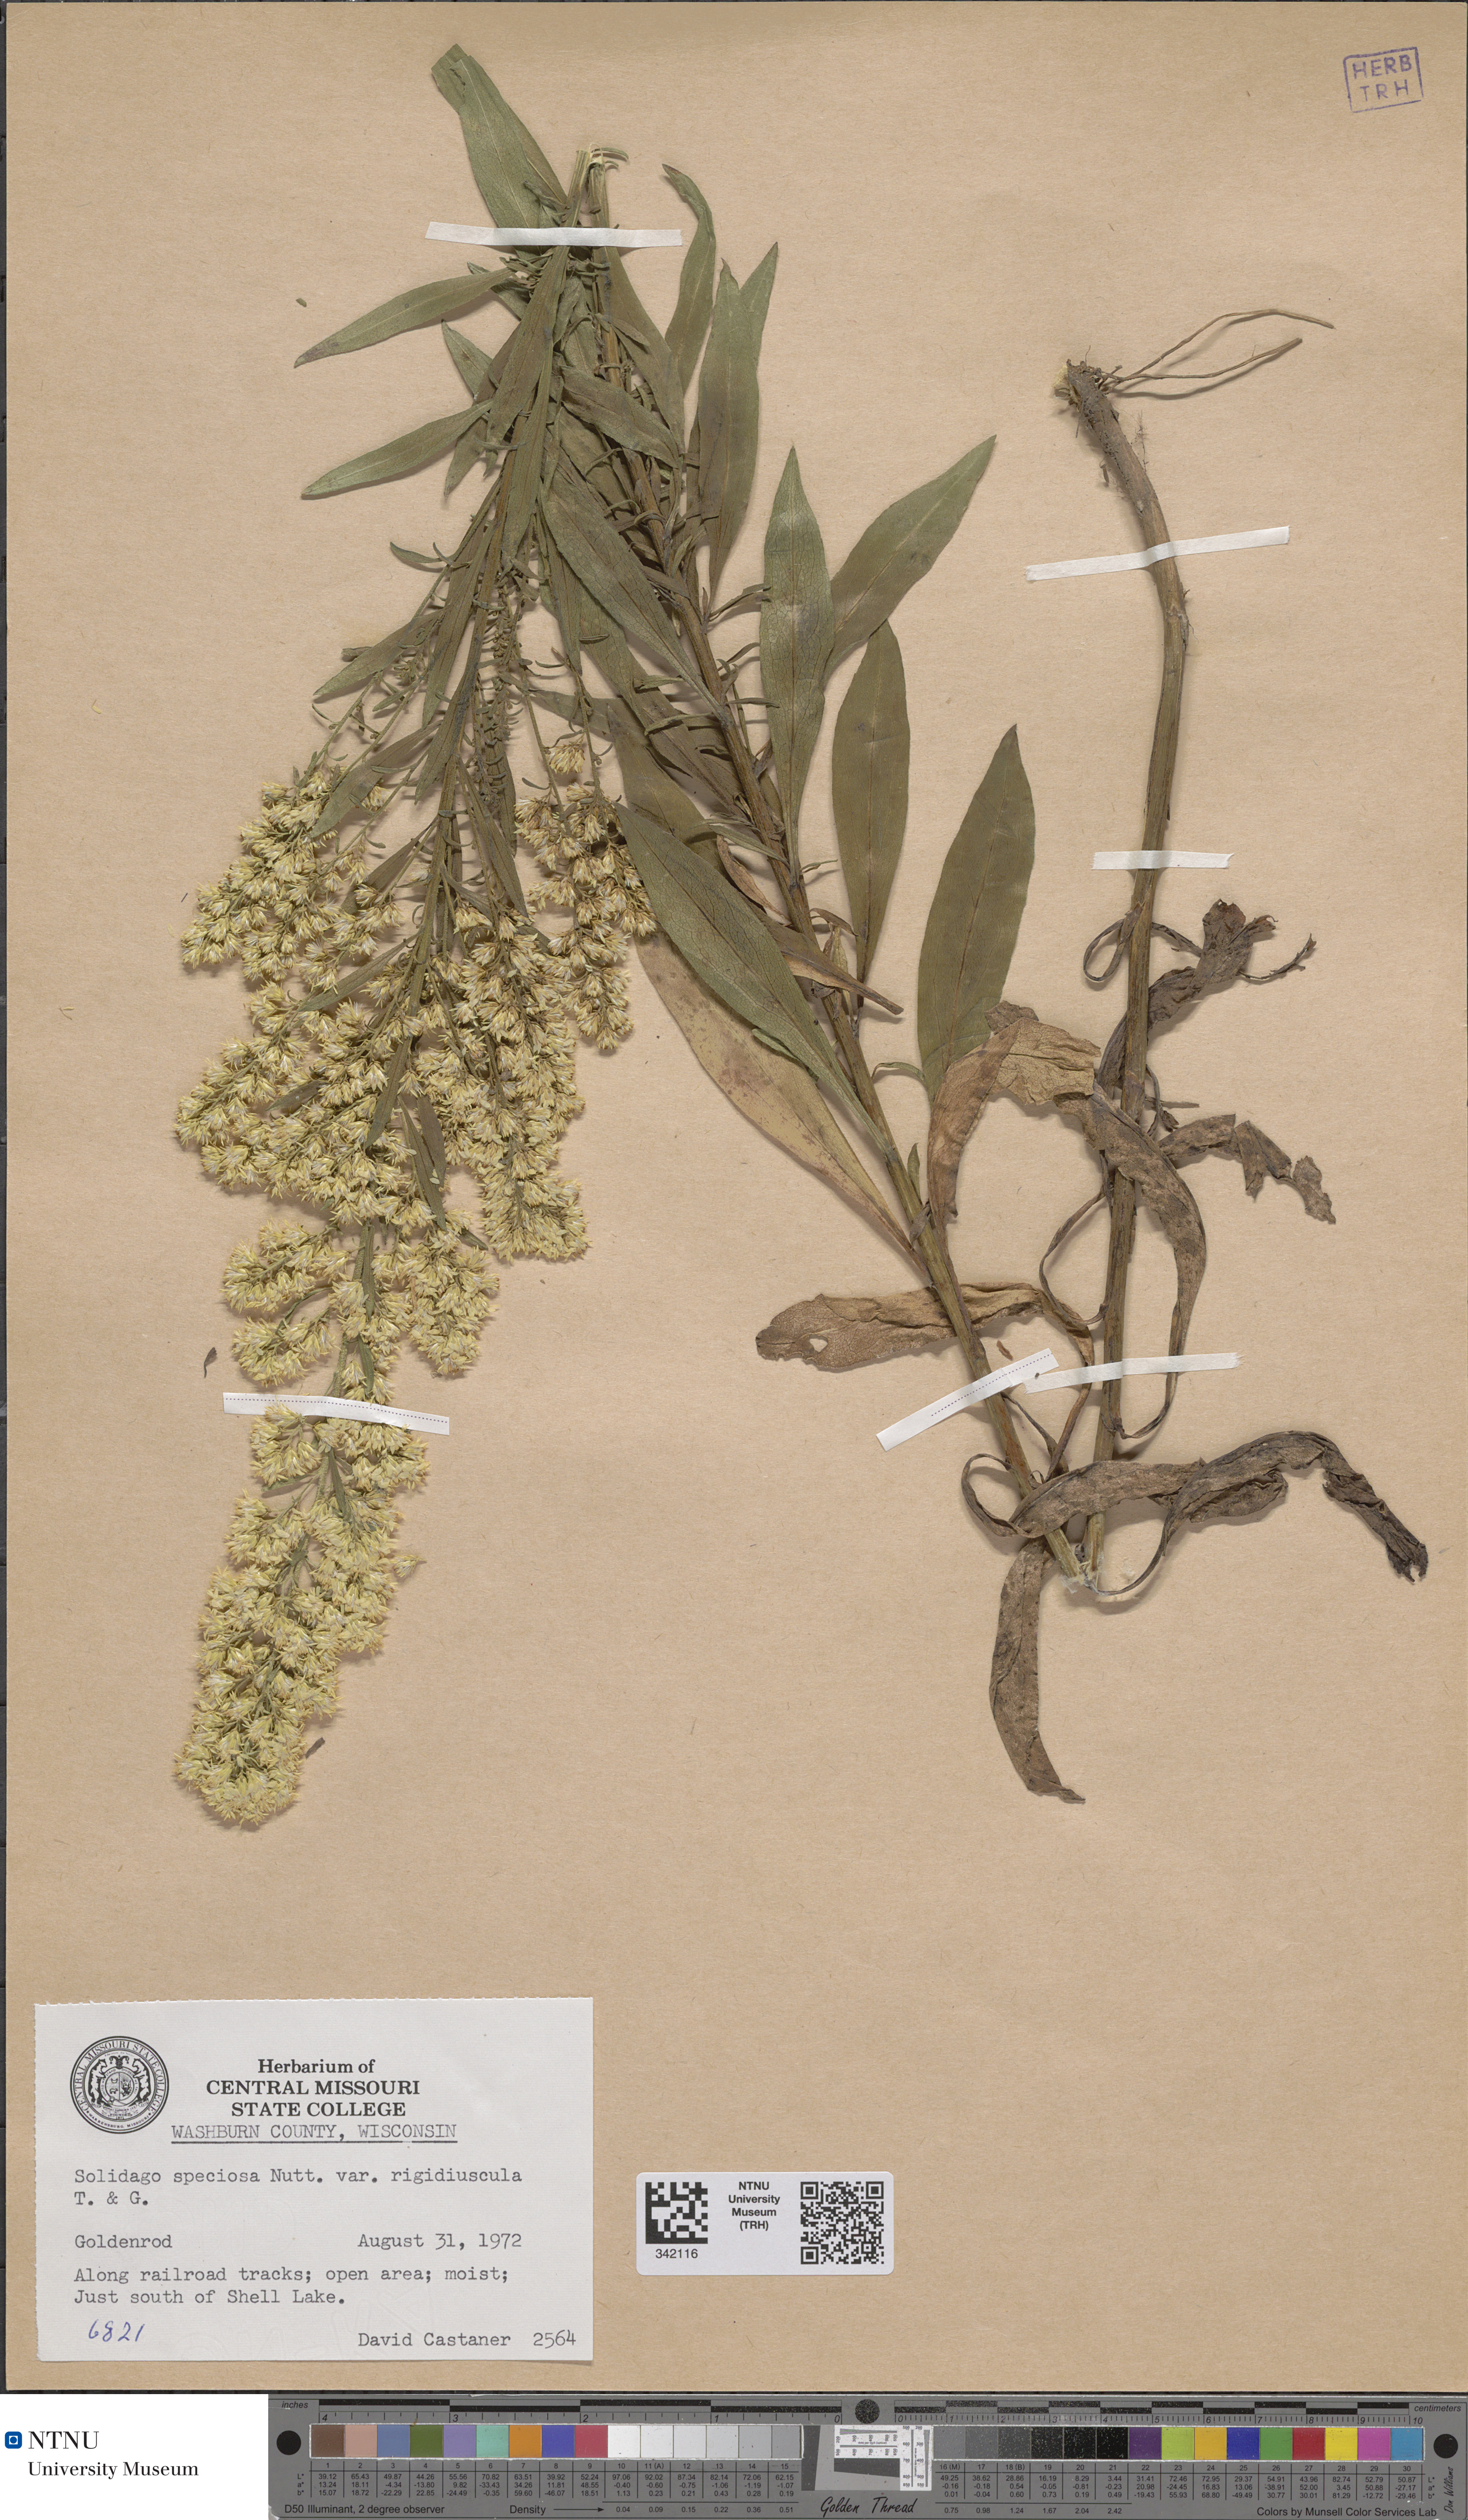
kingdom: Plantae
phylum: Tracheophyta
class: Magnoliopsida
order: Asterales
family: Asteraceae
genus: Solidago
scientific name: Solidago speciosa
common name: Showy goldenrod
